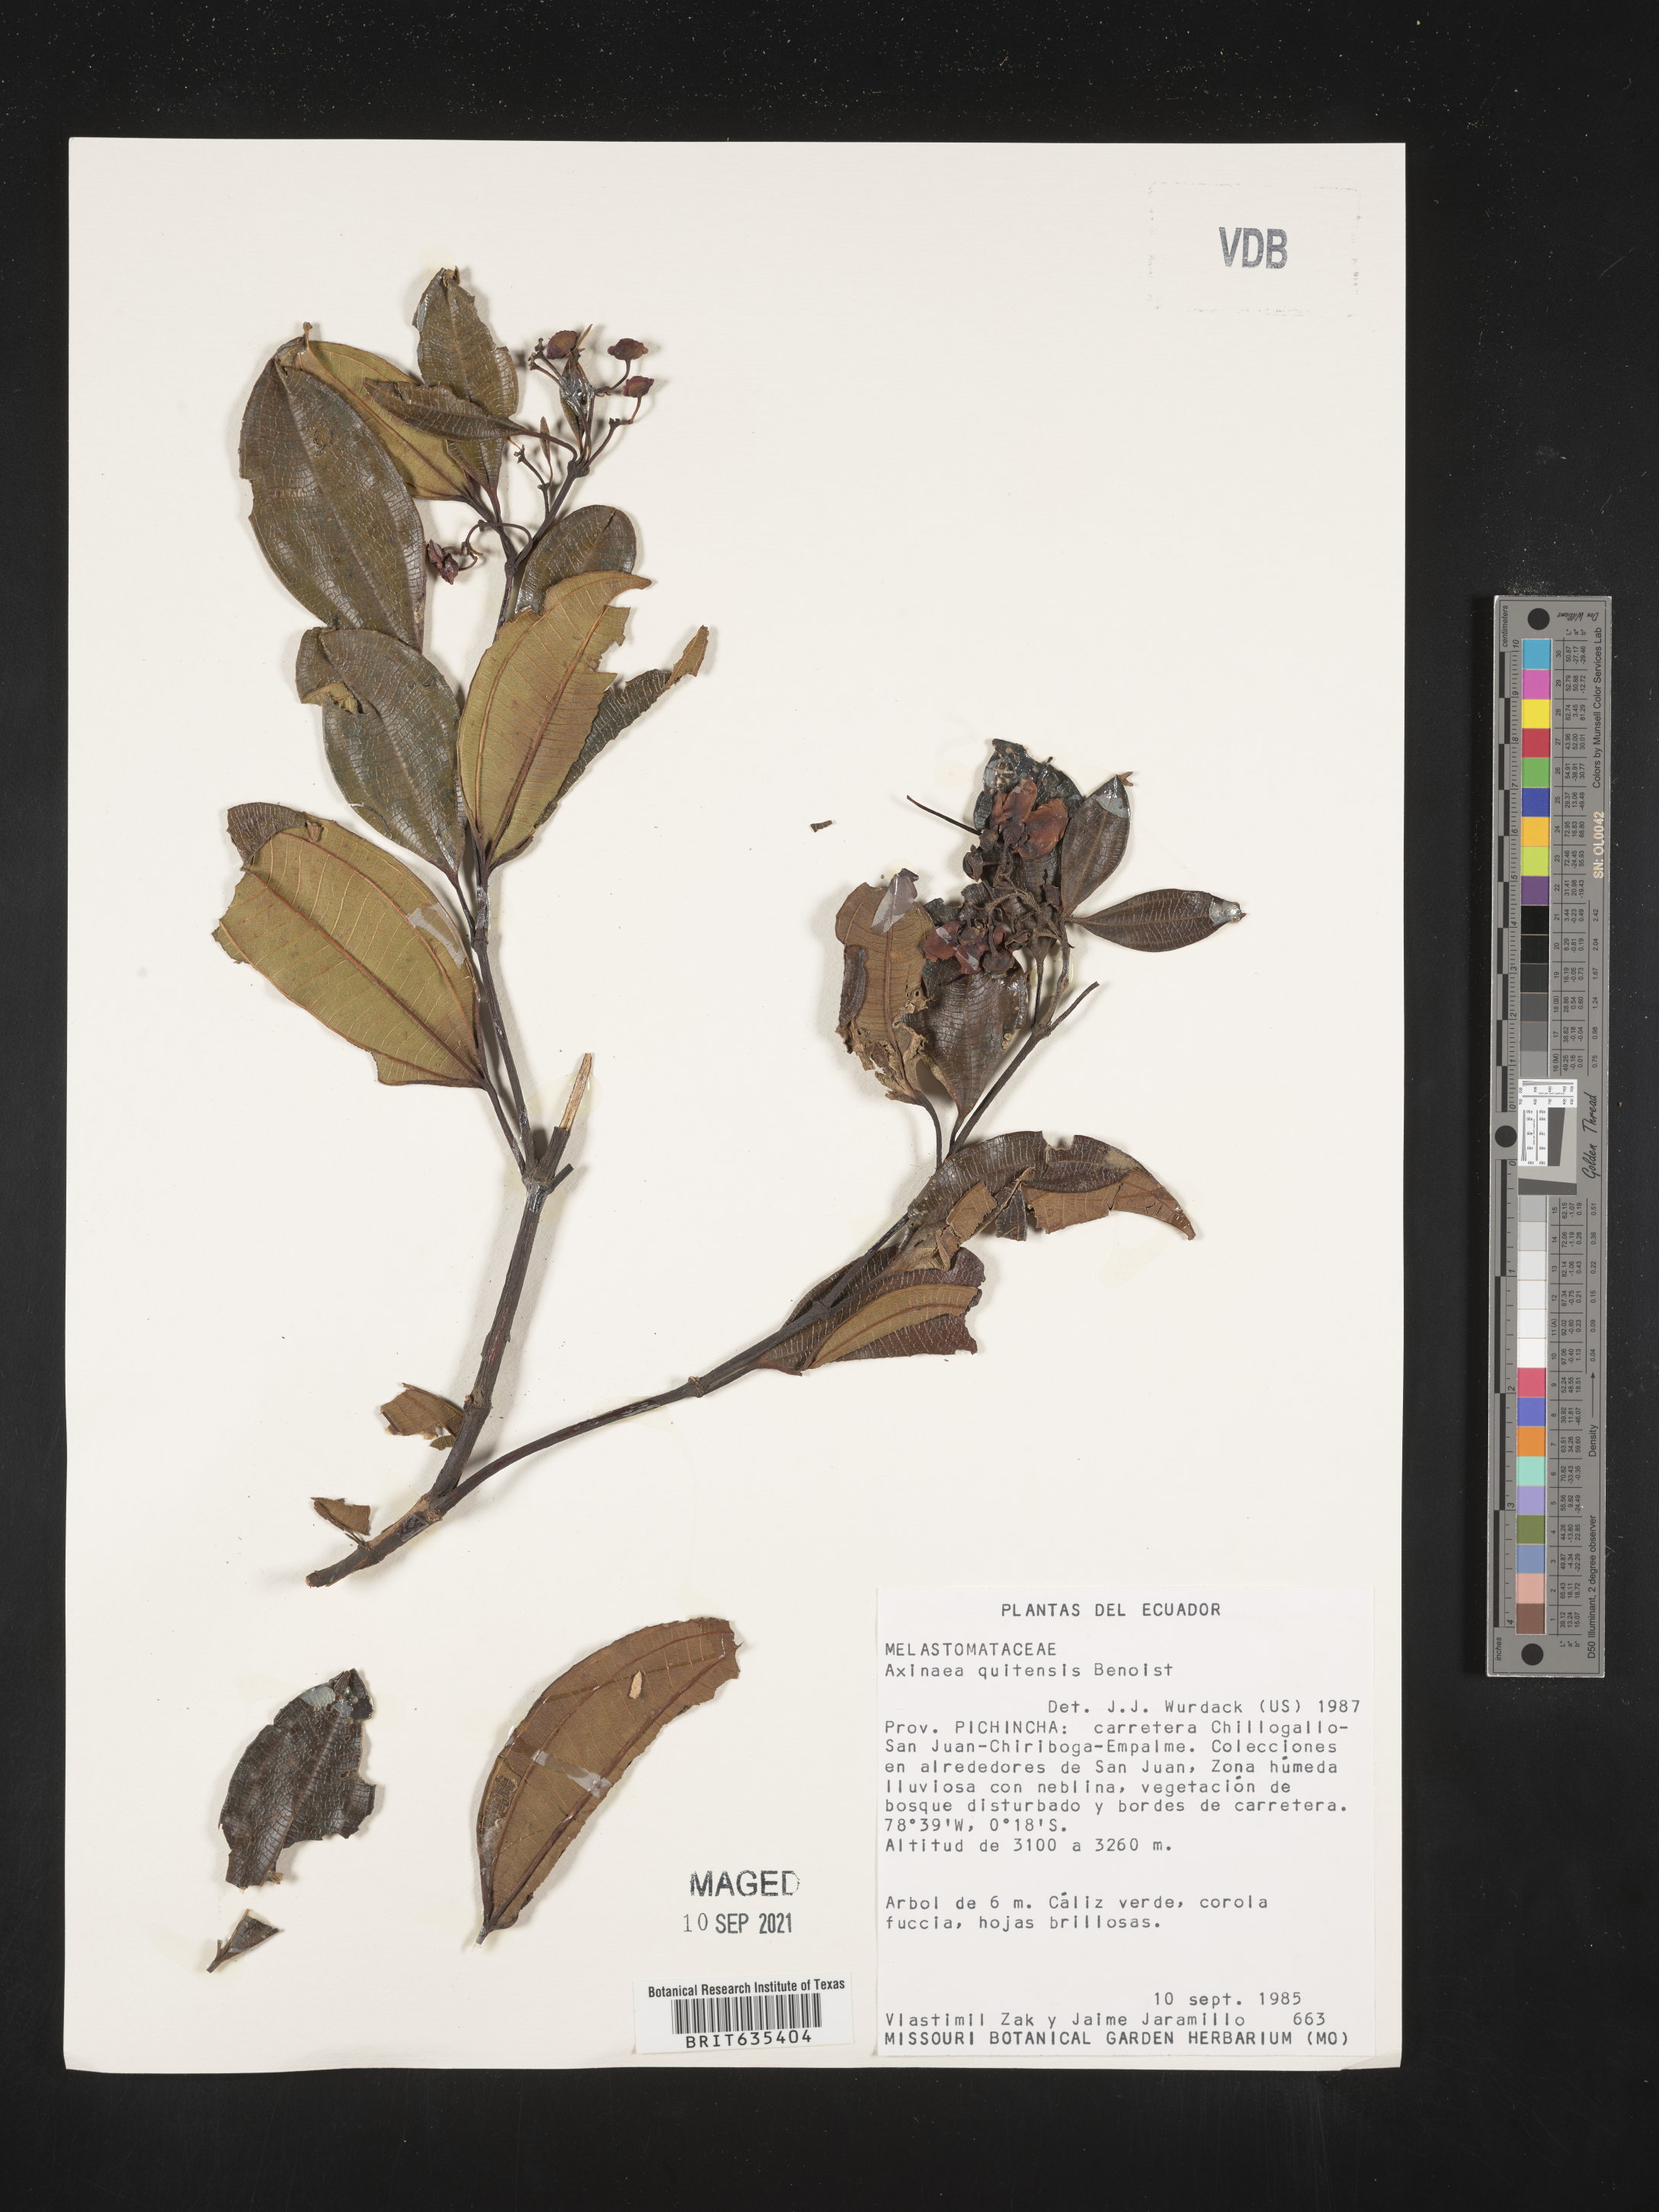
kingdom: Plantae
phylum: Tracheophyta
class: Magnoliopsida
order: Myrtales
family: Melastomataceae
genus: Axinaea
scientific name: Axinaea
